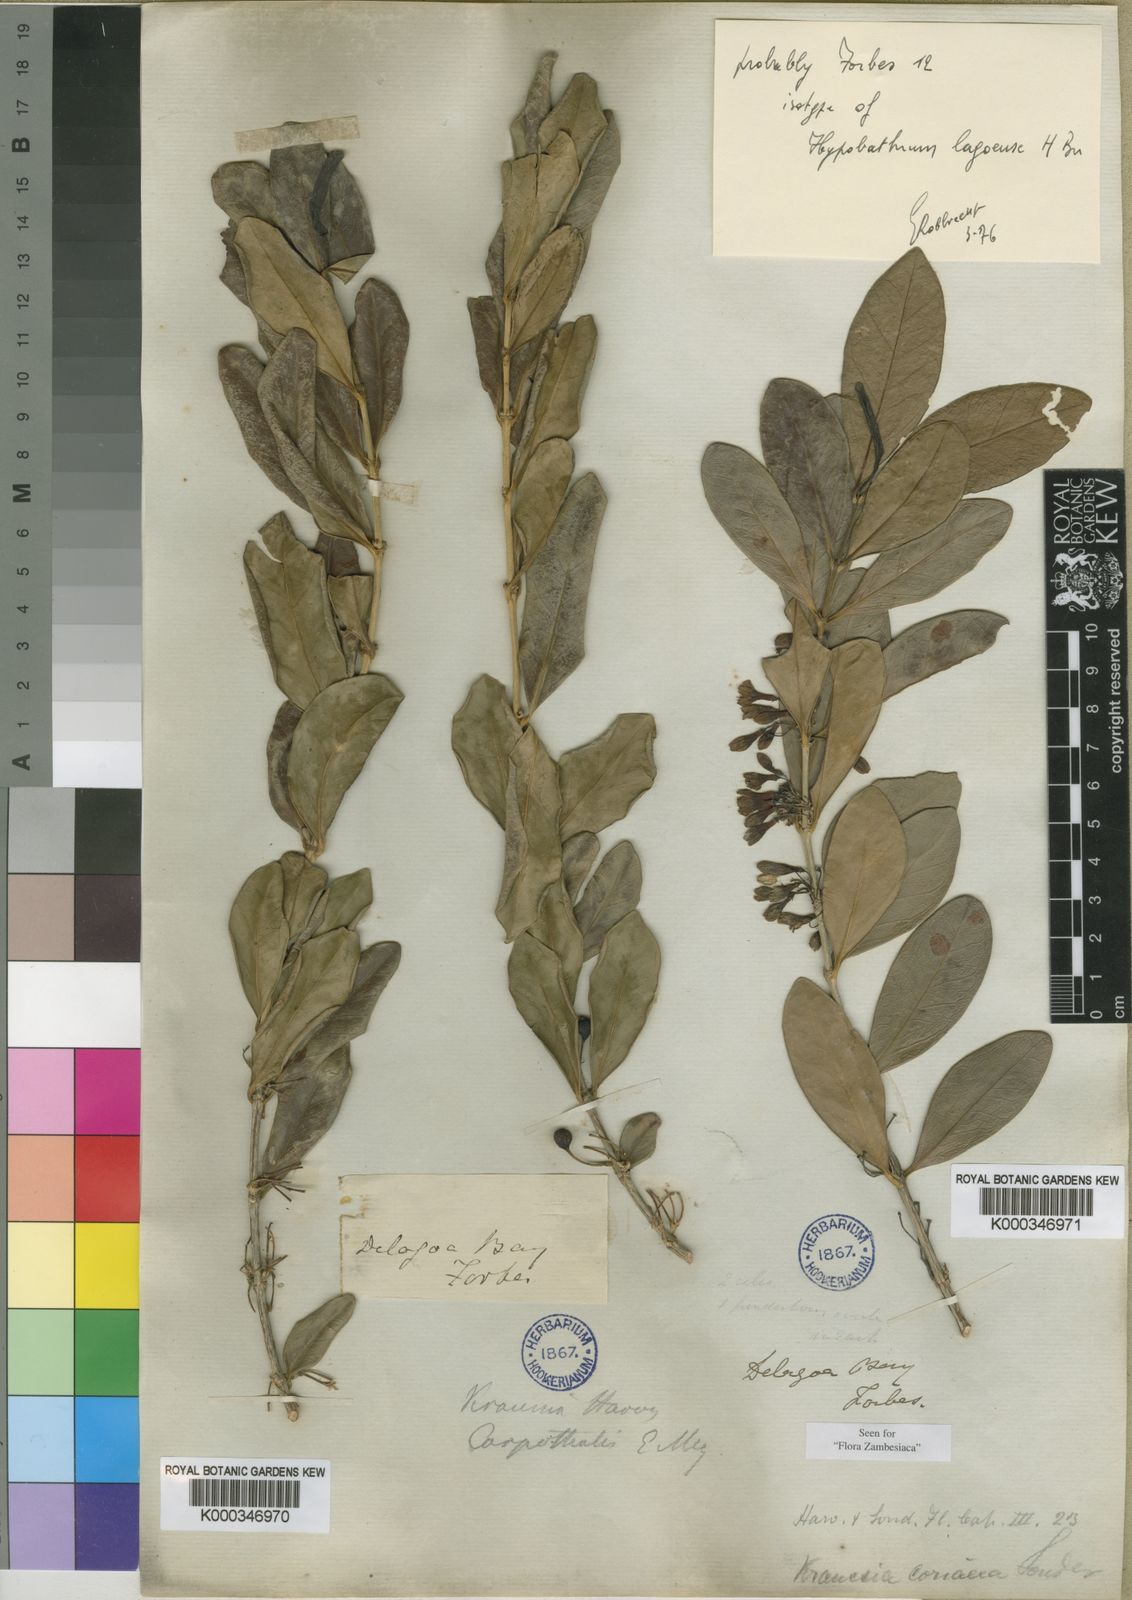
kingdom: Plantae
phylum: Tracheophyta
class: Magnoliopsida
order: Gentianales
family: Rubiaceae
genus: Empogona
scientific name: Empogona coriacea
